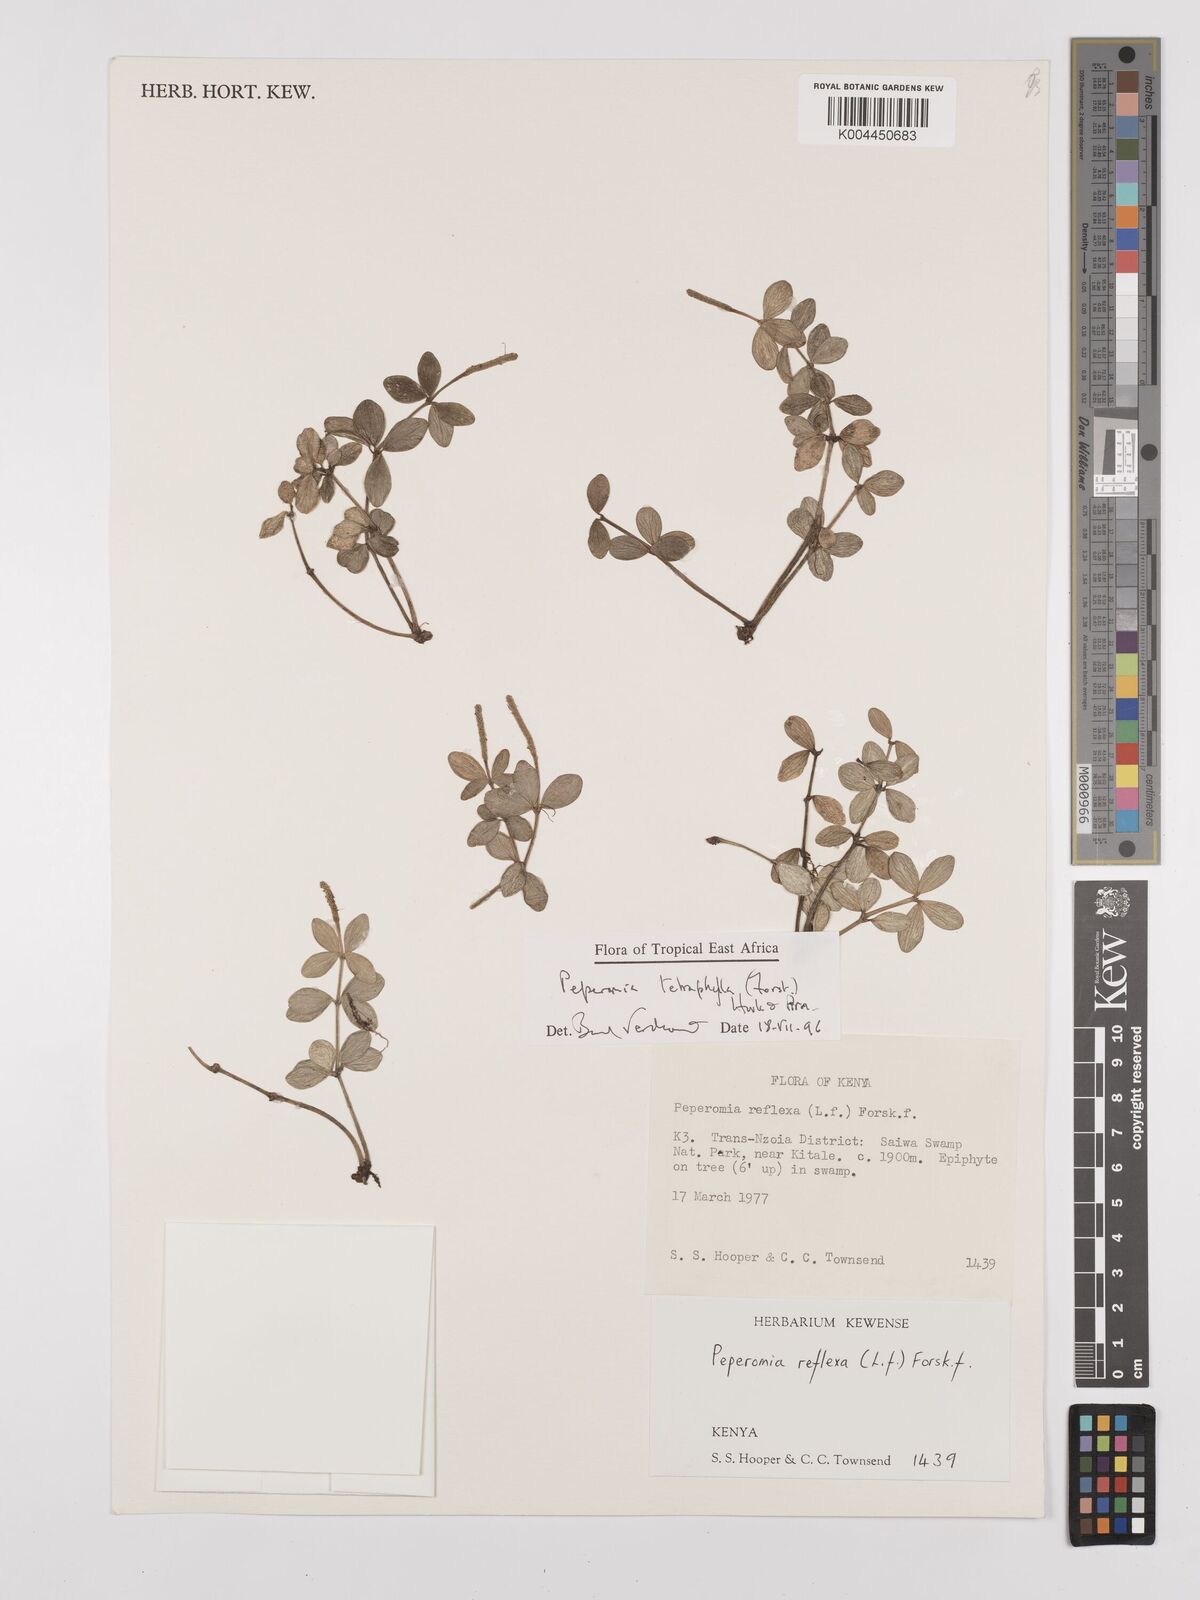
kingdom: Plantae
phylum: Tracheophyta
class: Magnoliopsida
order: Piperales
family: Piperaceae
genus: Peperomia
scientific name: Peperomia tetraphylla
